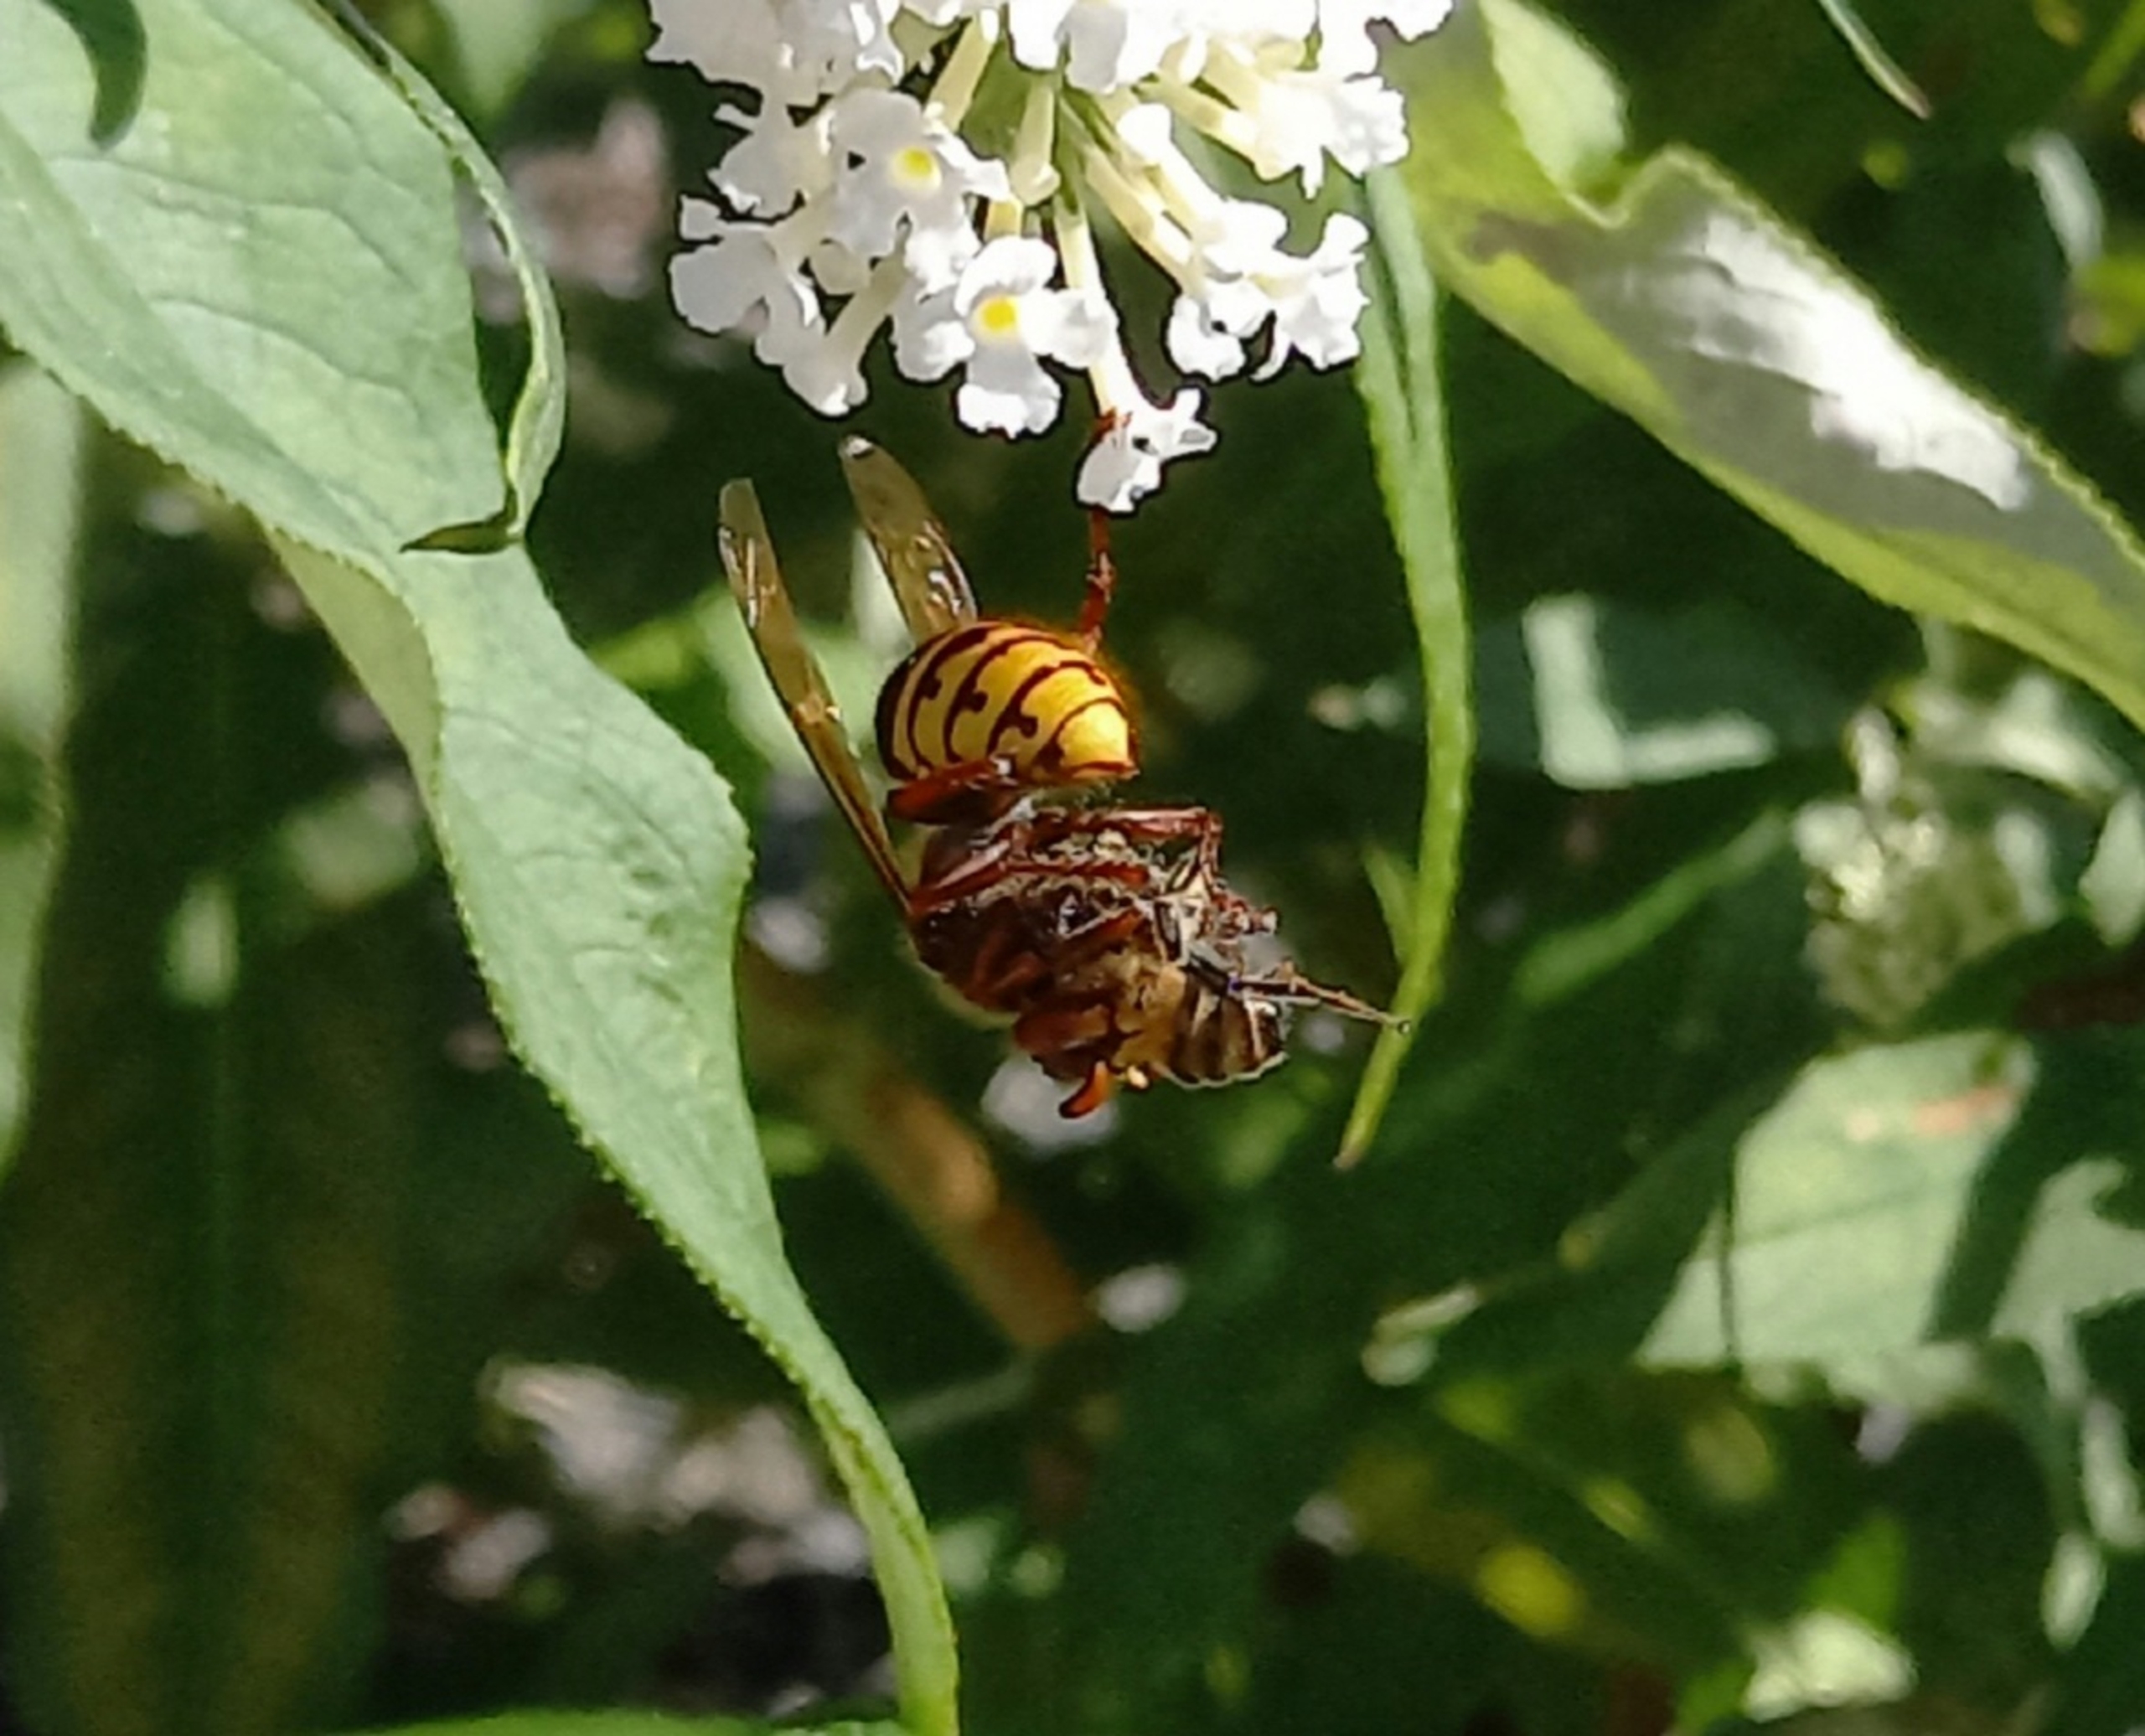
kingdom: Animalia
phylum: Arthropoda
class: Insecta
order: Hymenoptera
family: Vespidae
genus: Vespa
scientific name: Vespa crabro
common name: Stor gedehams
